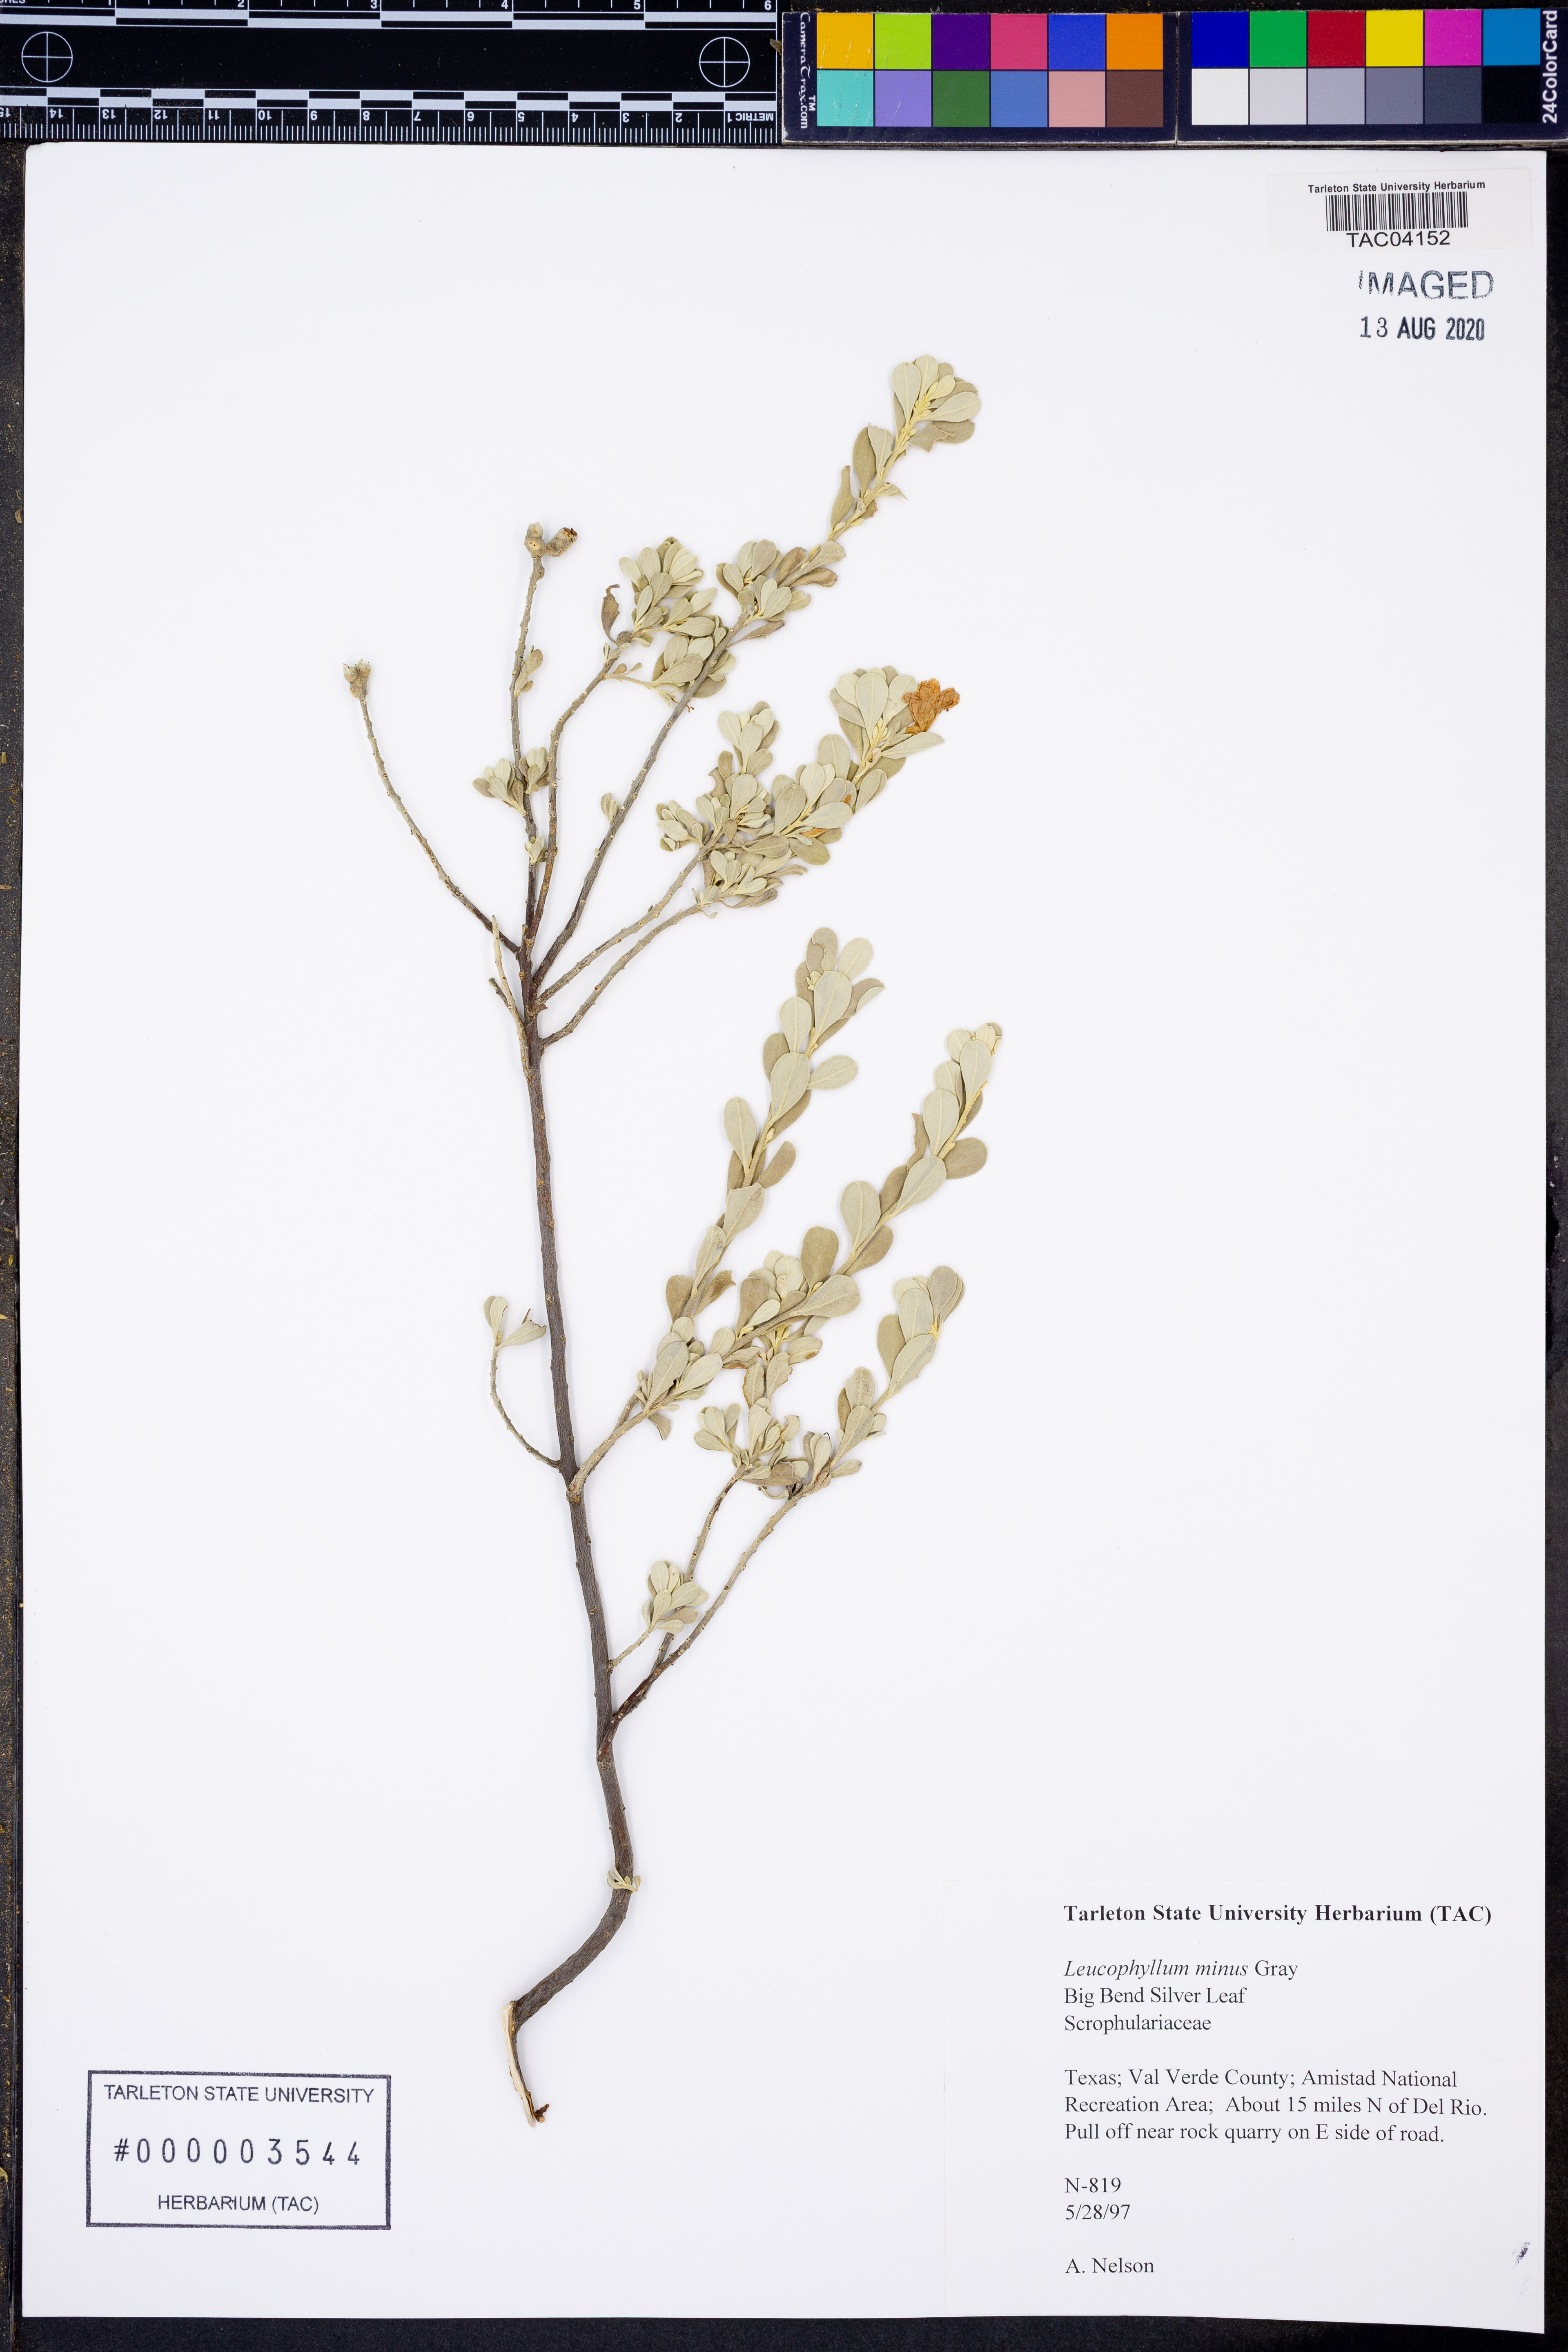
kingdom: Plantae
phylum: Tracheophyta
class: Magnoliopsida
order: Lamiales
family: Scrophulariaceae
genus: Leucophyllum
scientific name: Leucophyllum minus
